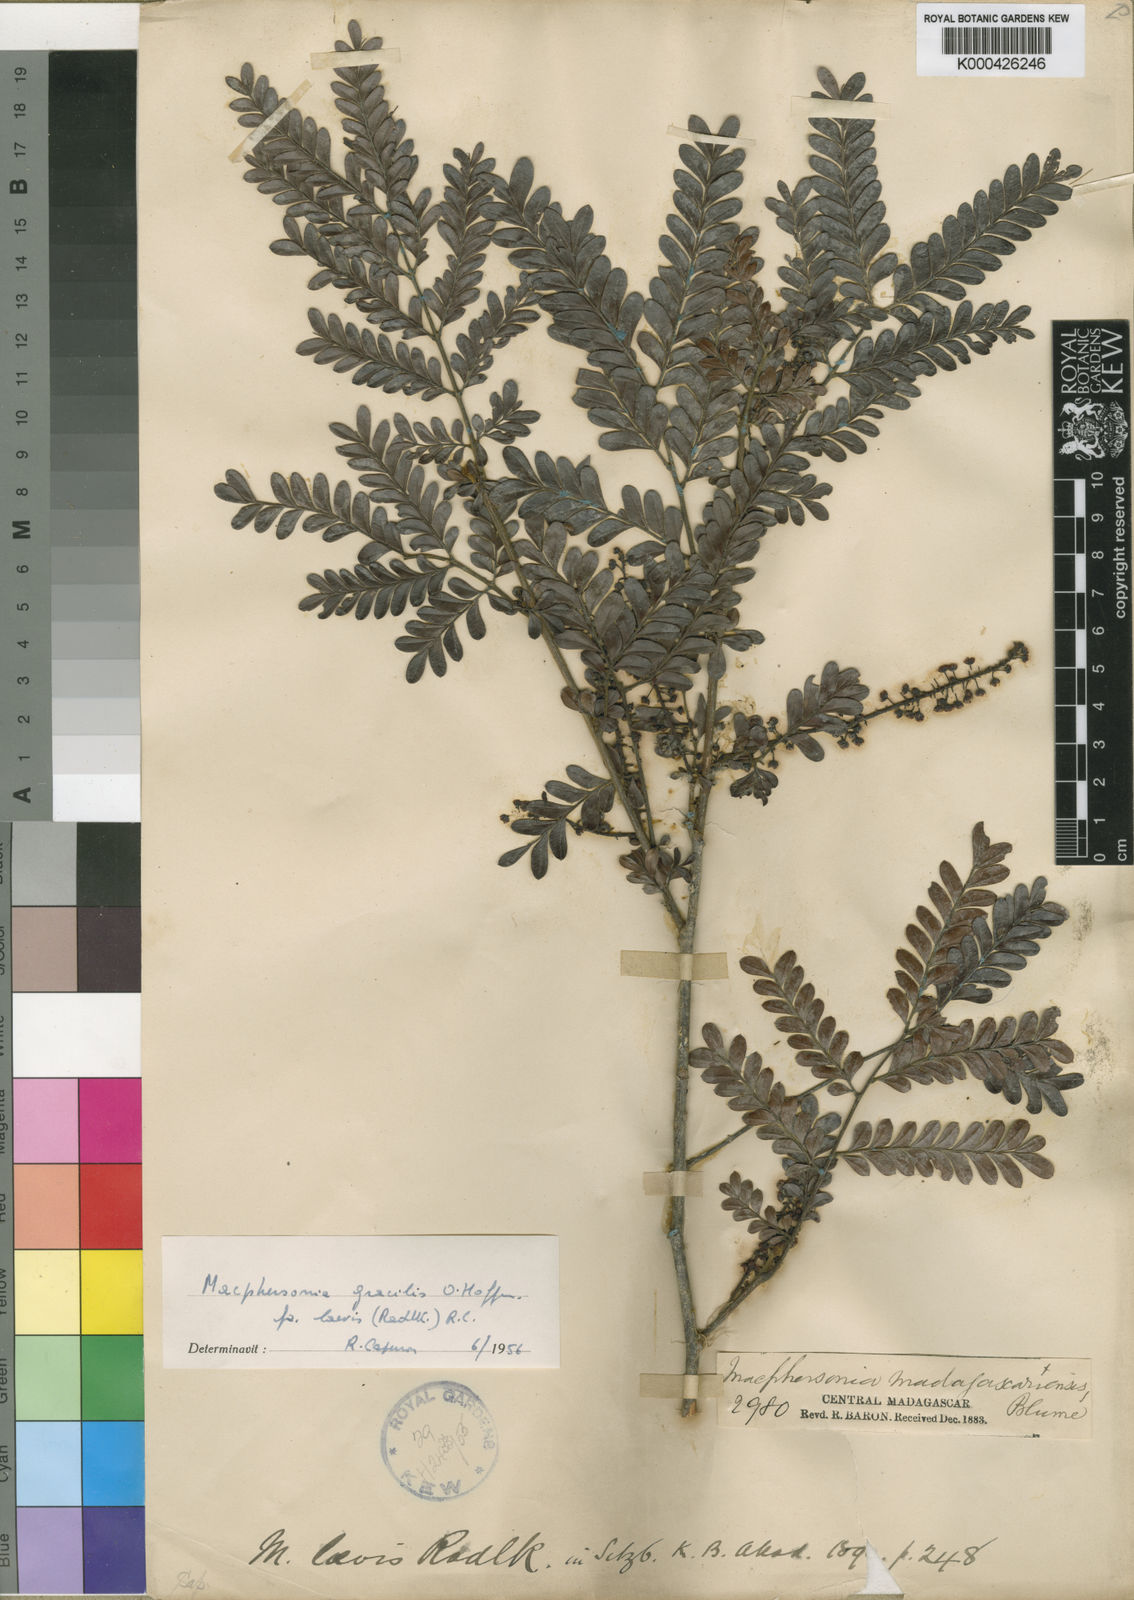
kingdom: Plantae
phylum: Tracheophyta
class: Magnoliopsida
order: Sapindales
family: Sapindaceae
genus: Macphersonia
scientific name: Macphersonia gracilis
